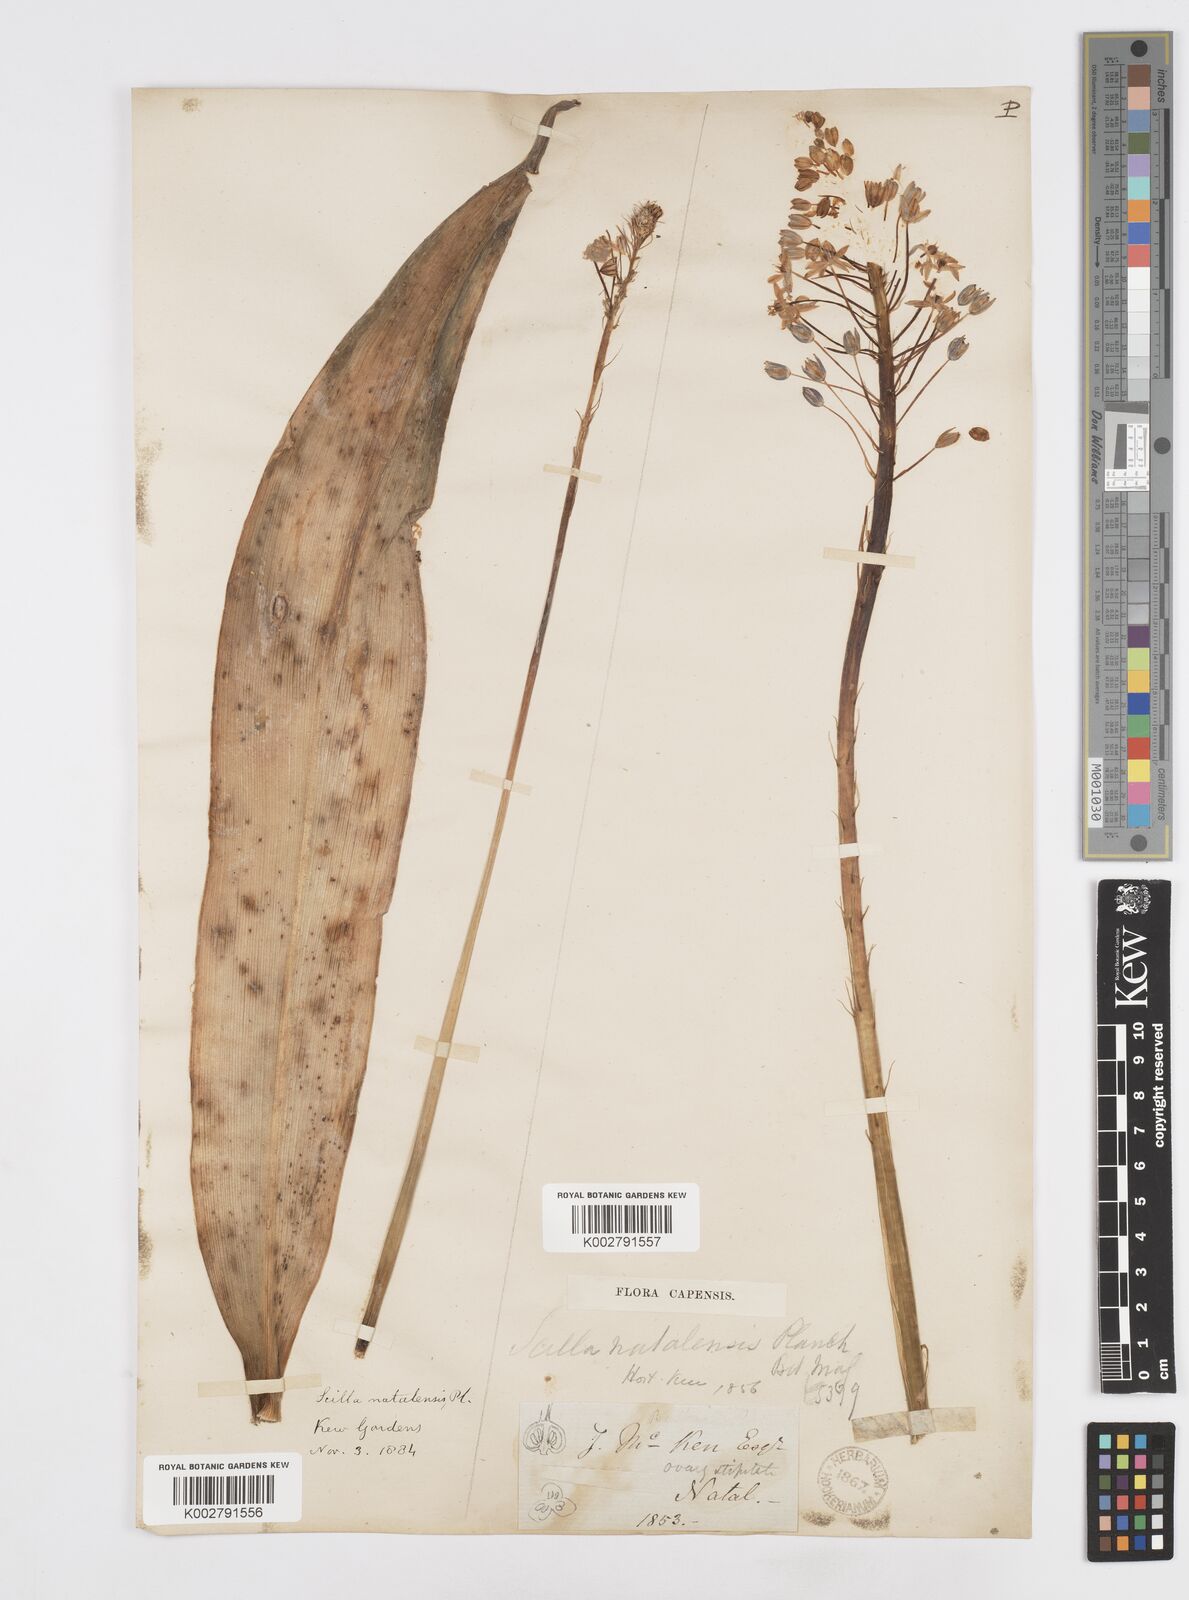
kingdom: Plantae
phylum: Tracheophyta
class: Liliopsida
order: Asparagales
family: Asparagaceae
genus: Merwilla
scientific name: Merwilla plumbea
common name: Blue-squill
